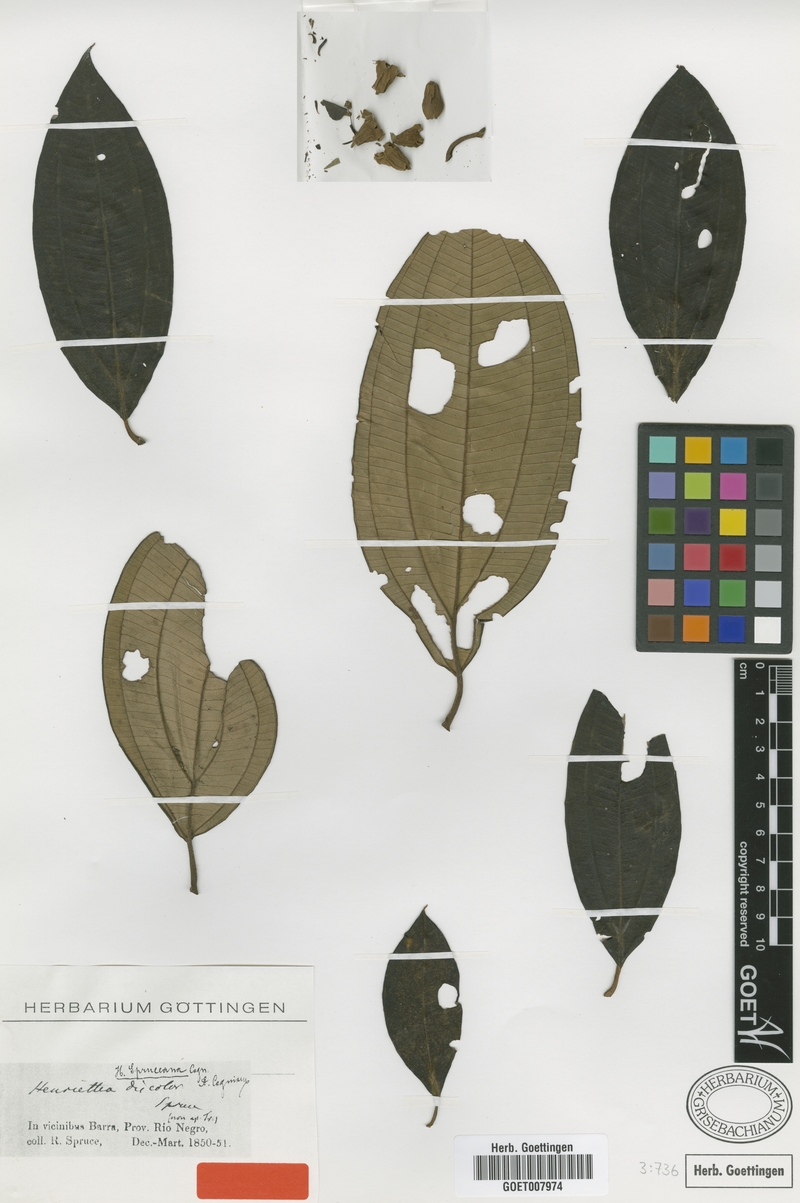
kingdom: Plantae
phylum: Tracheophyta
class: Magnoliopsida
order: Myrtales
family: Melastomataceae
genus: Henriettea
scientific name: Henriettea spruceana
